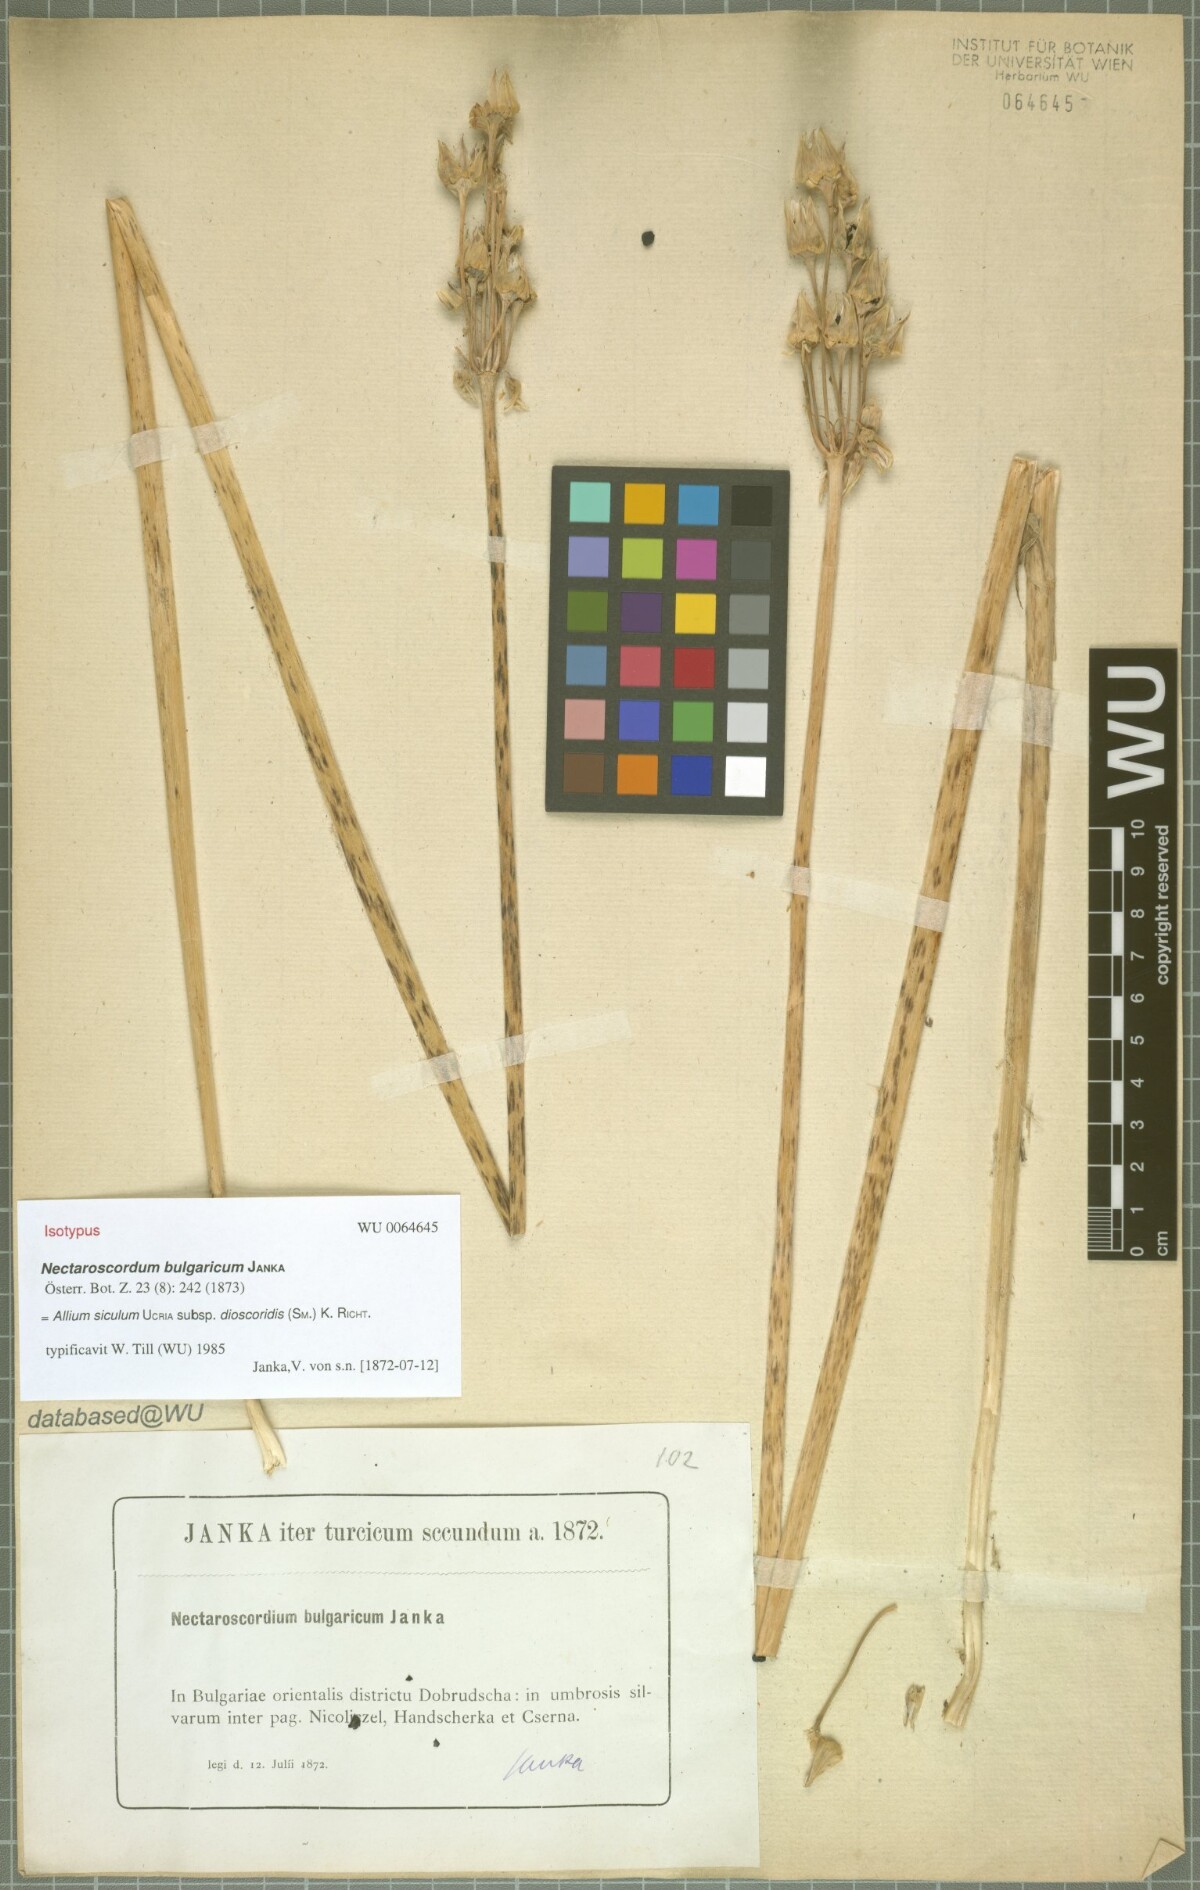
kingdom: Plantae
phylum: Tracheophyta
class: Liliopsida
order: Asparagales
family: Amaryllidaceae
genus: Allium
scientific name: Allium siculum
